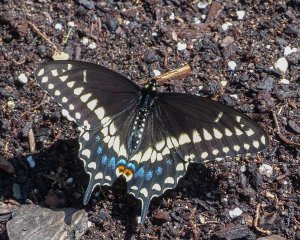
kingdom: Animalia
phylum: Arthropoda
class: Insecta
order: Lepidoptera
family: Papilionidae
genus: Papilio
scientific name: Papilio polyxenes
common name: Black Swallowtail
